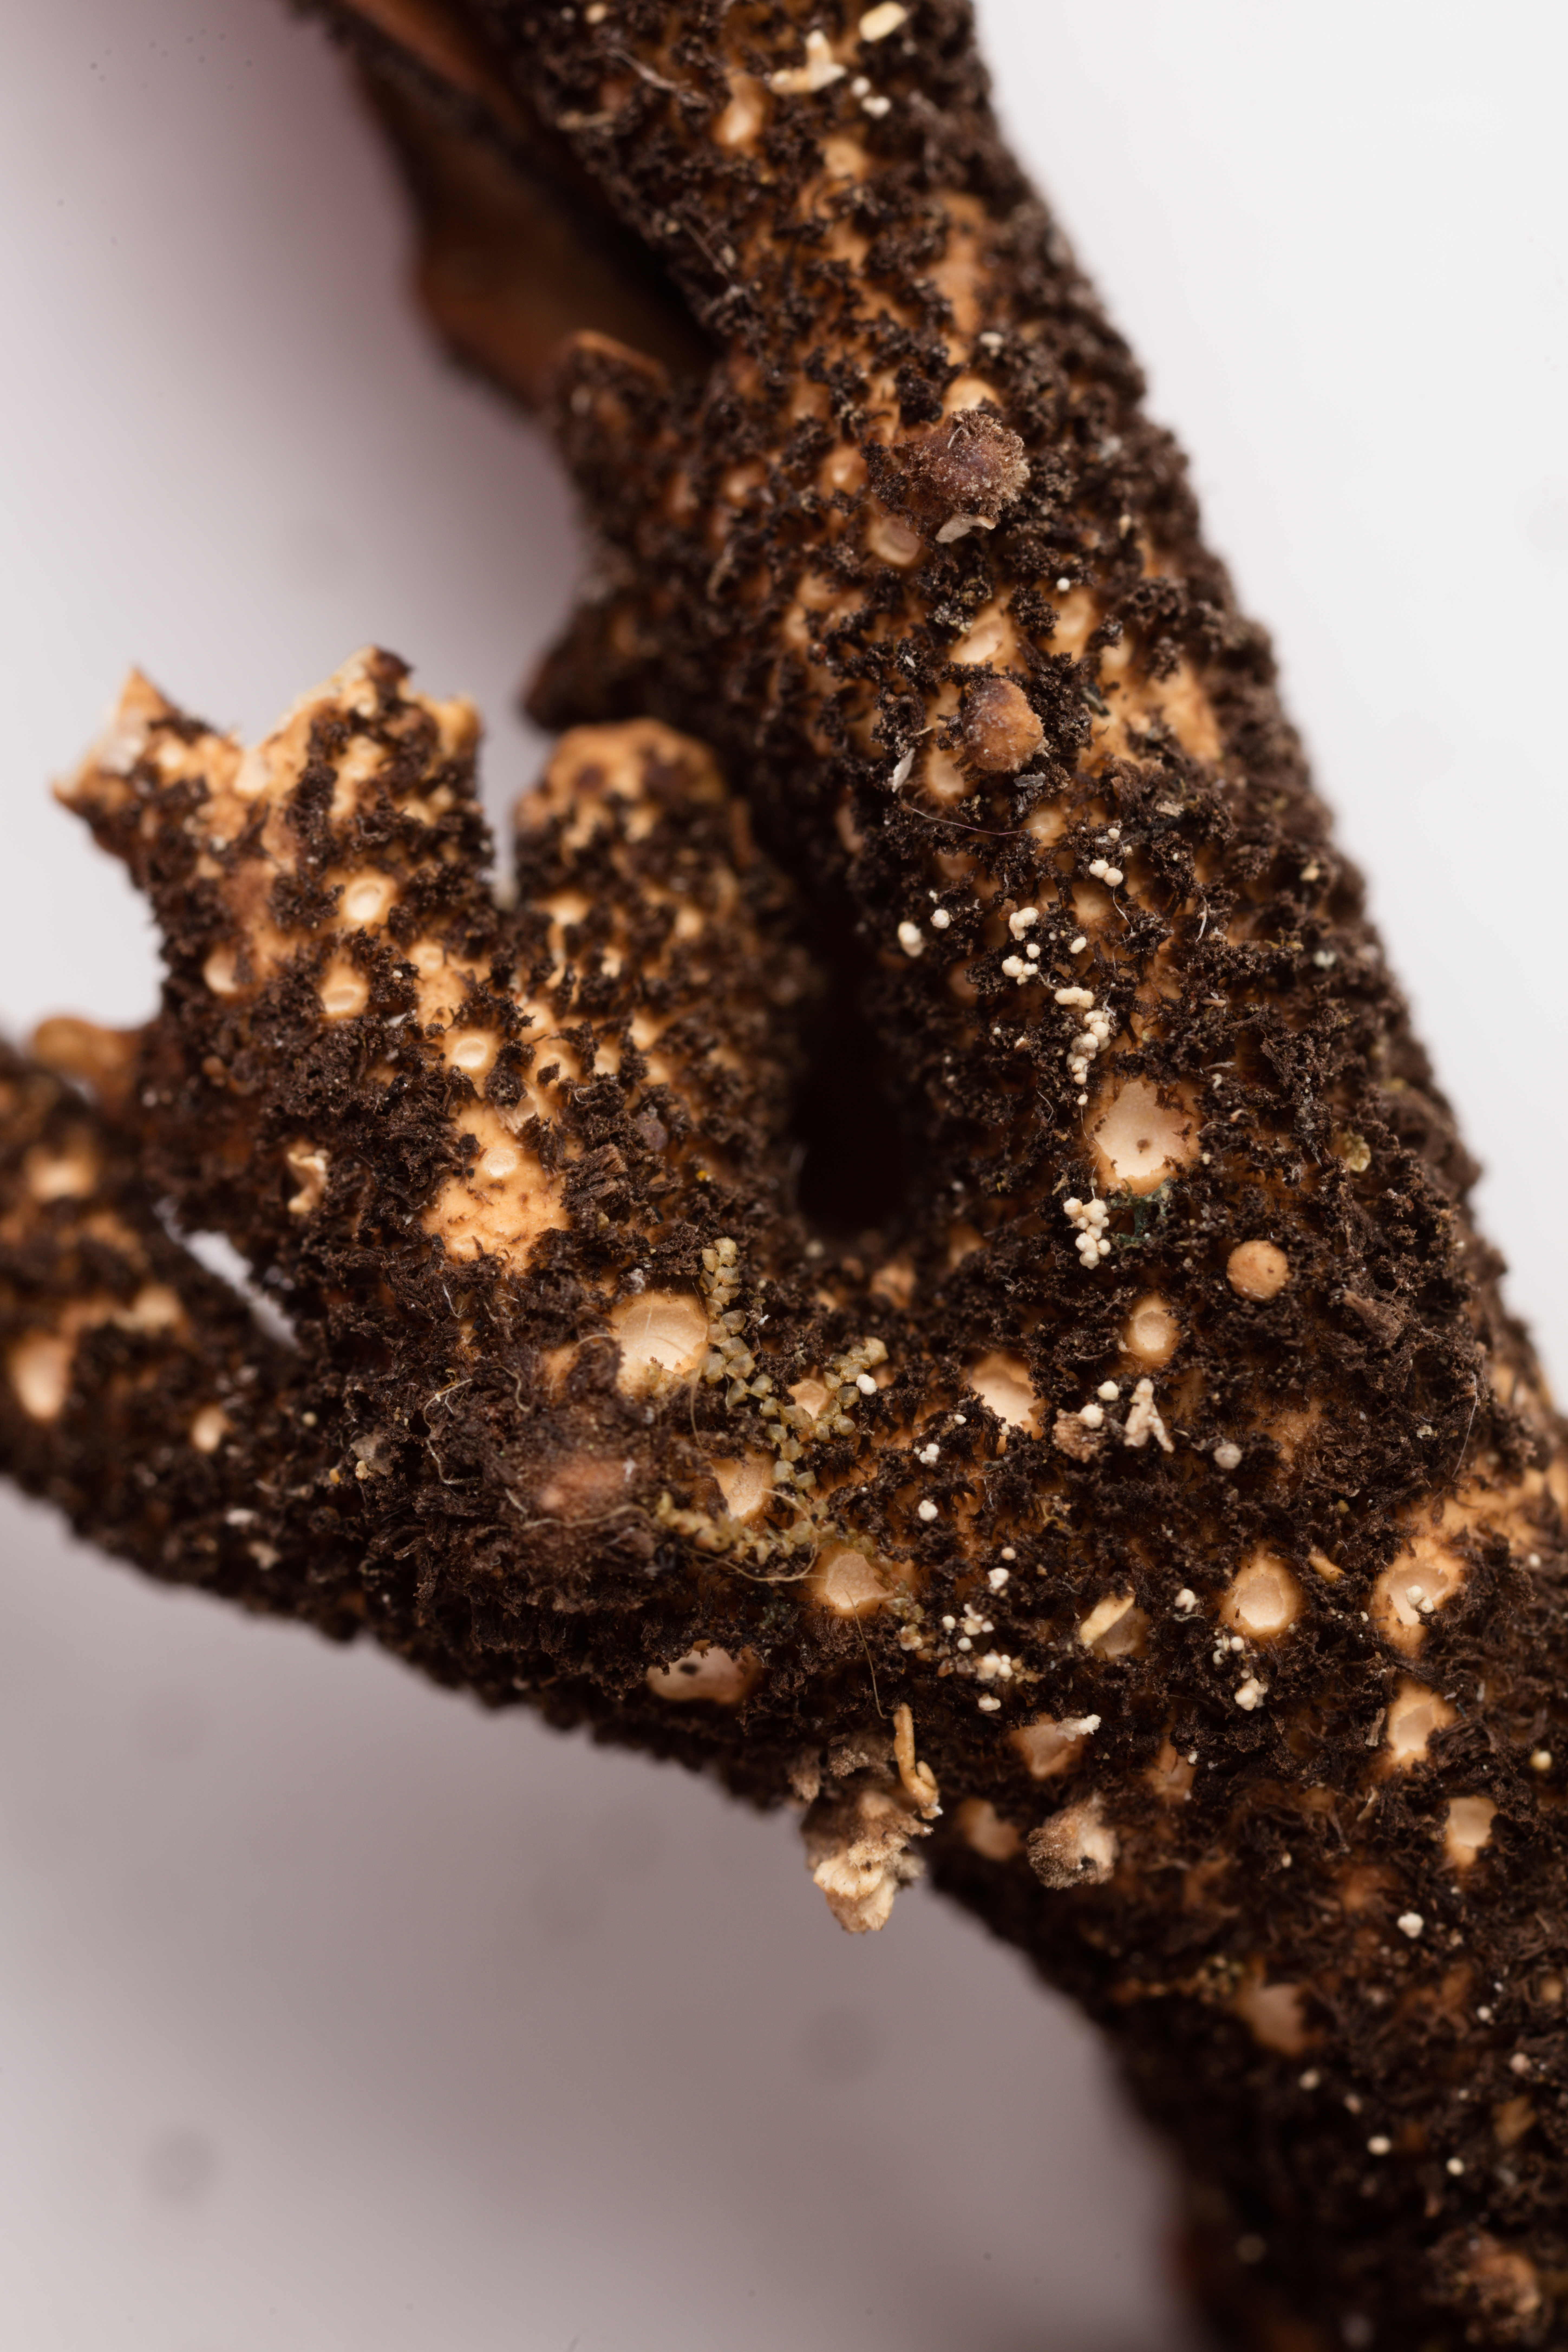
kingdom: Fungi
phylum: Ascomycota
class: Lecanoromycetes
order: Peltigerales
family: Lobariaceae
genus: Sticta
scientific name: Sticta subcaperata
